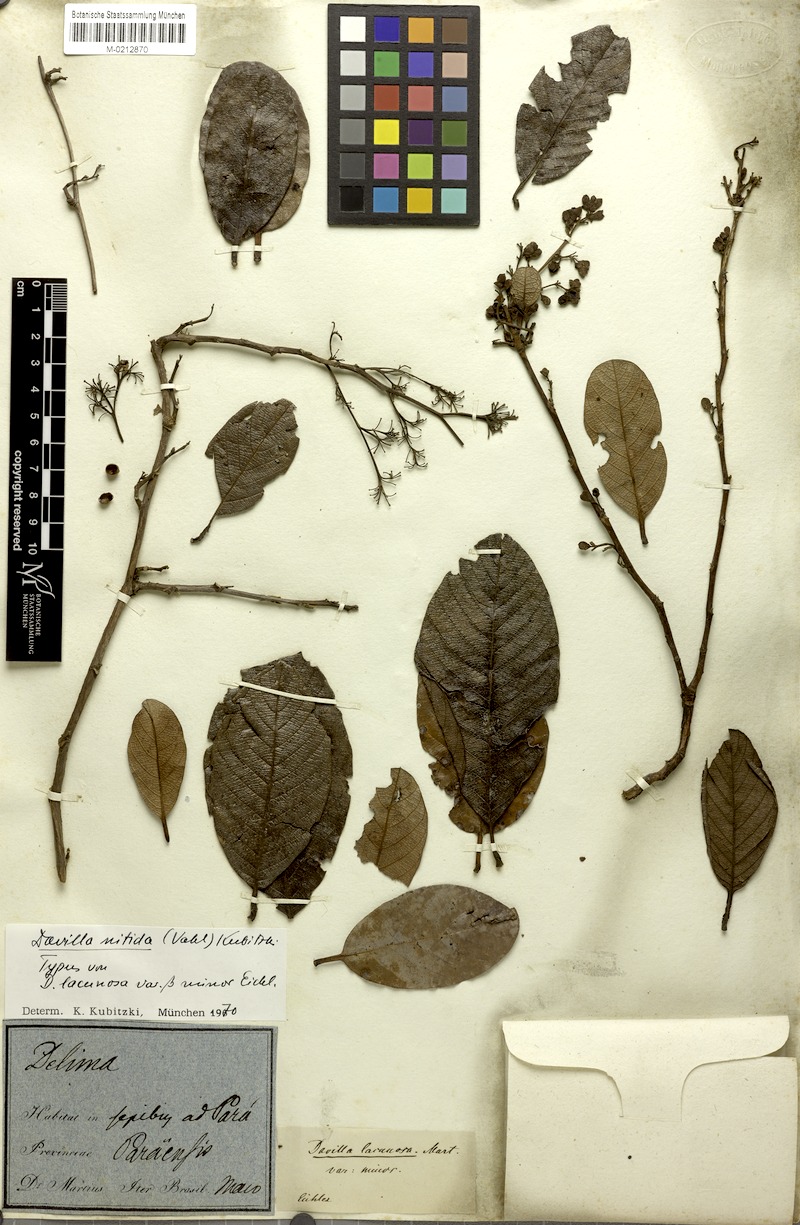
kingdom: Plantae
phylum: Tracheophyta
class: Magnoliopsida
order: Dilleniales
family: Dilleniaceae
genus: Davilla
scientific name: Davilla nitida
